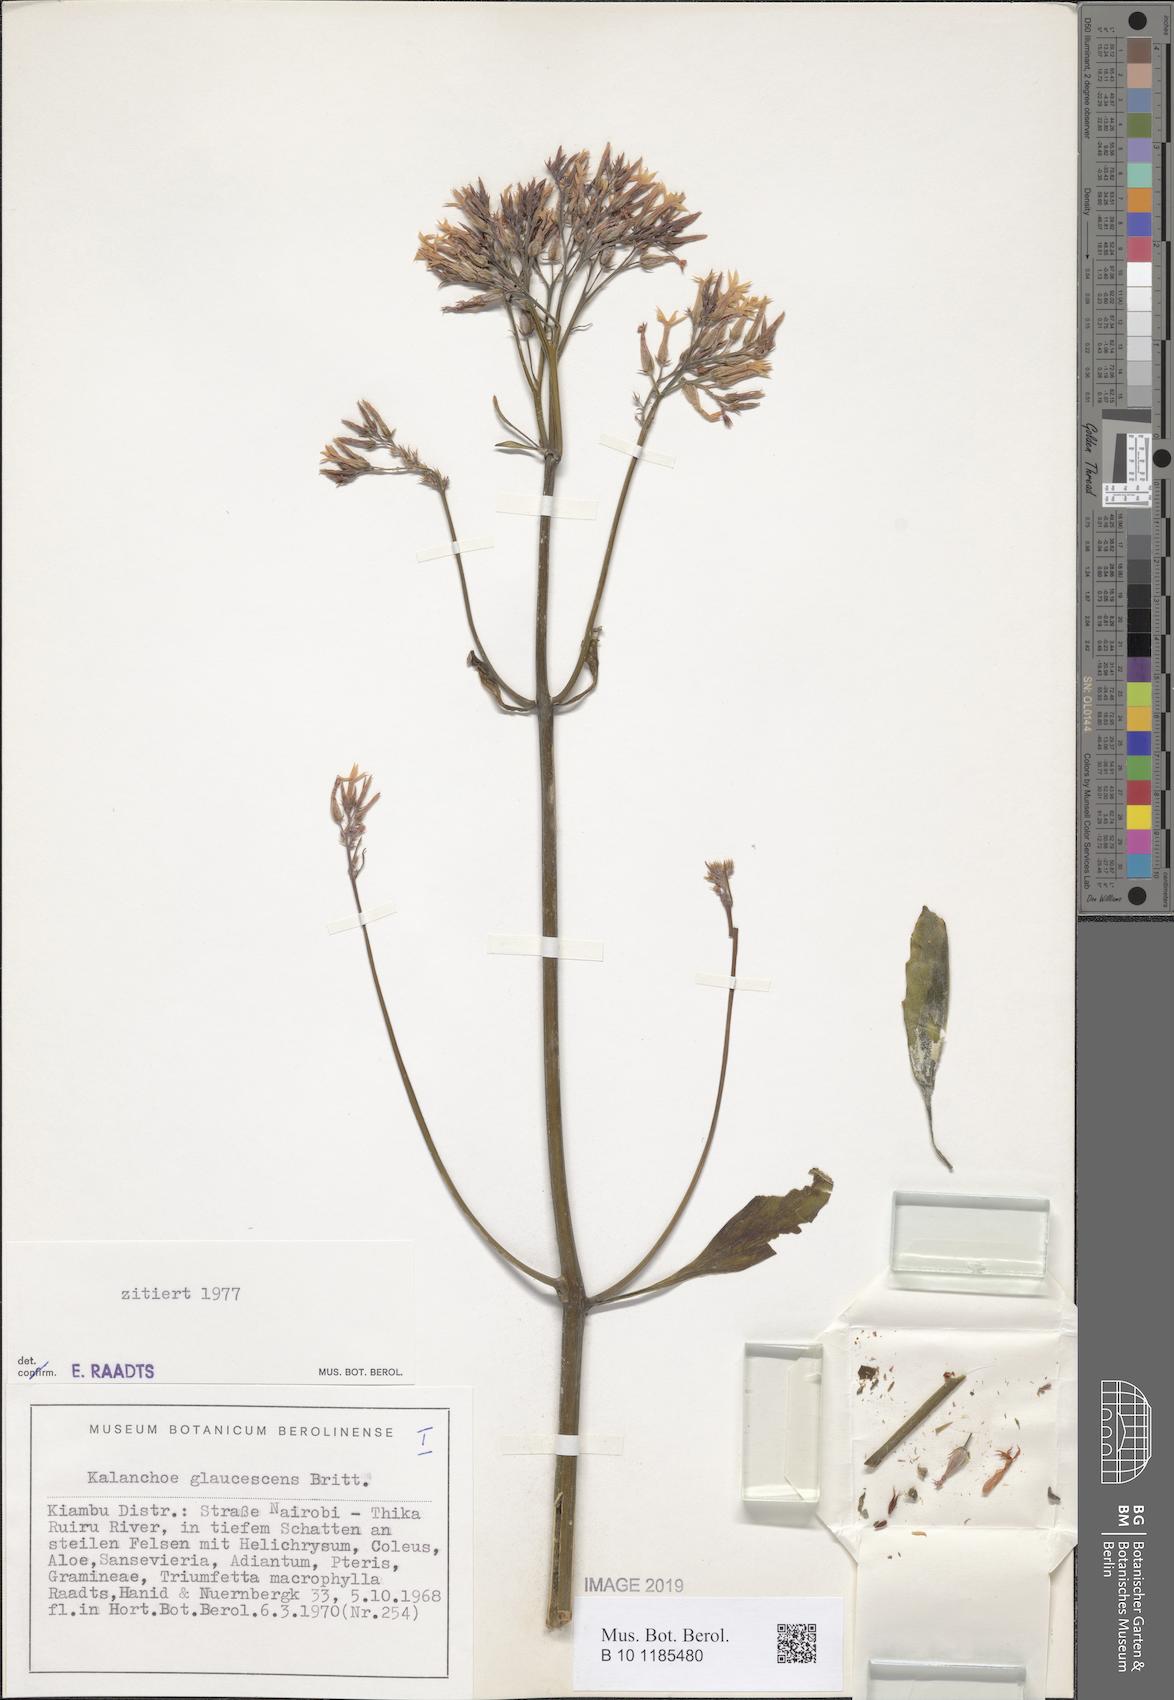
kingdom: Plantae
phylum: Tracheophyta
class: Magnoliopsida
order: Saxifragales
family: Crassulaceae
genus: Kalanchoe
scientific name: Kalanchoe glaucescens
